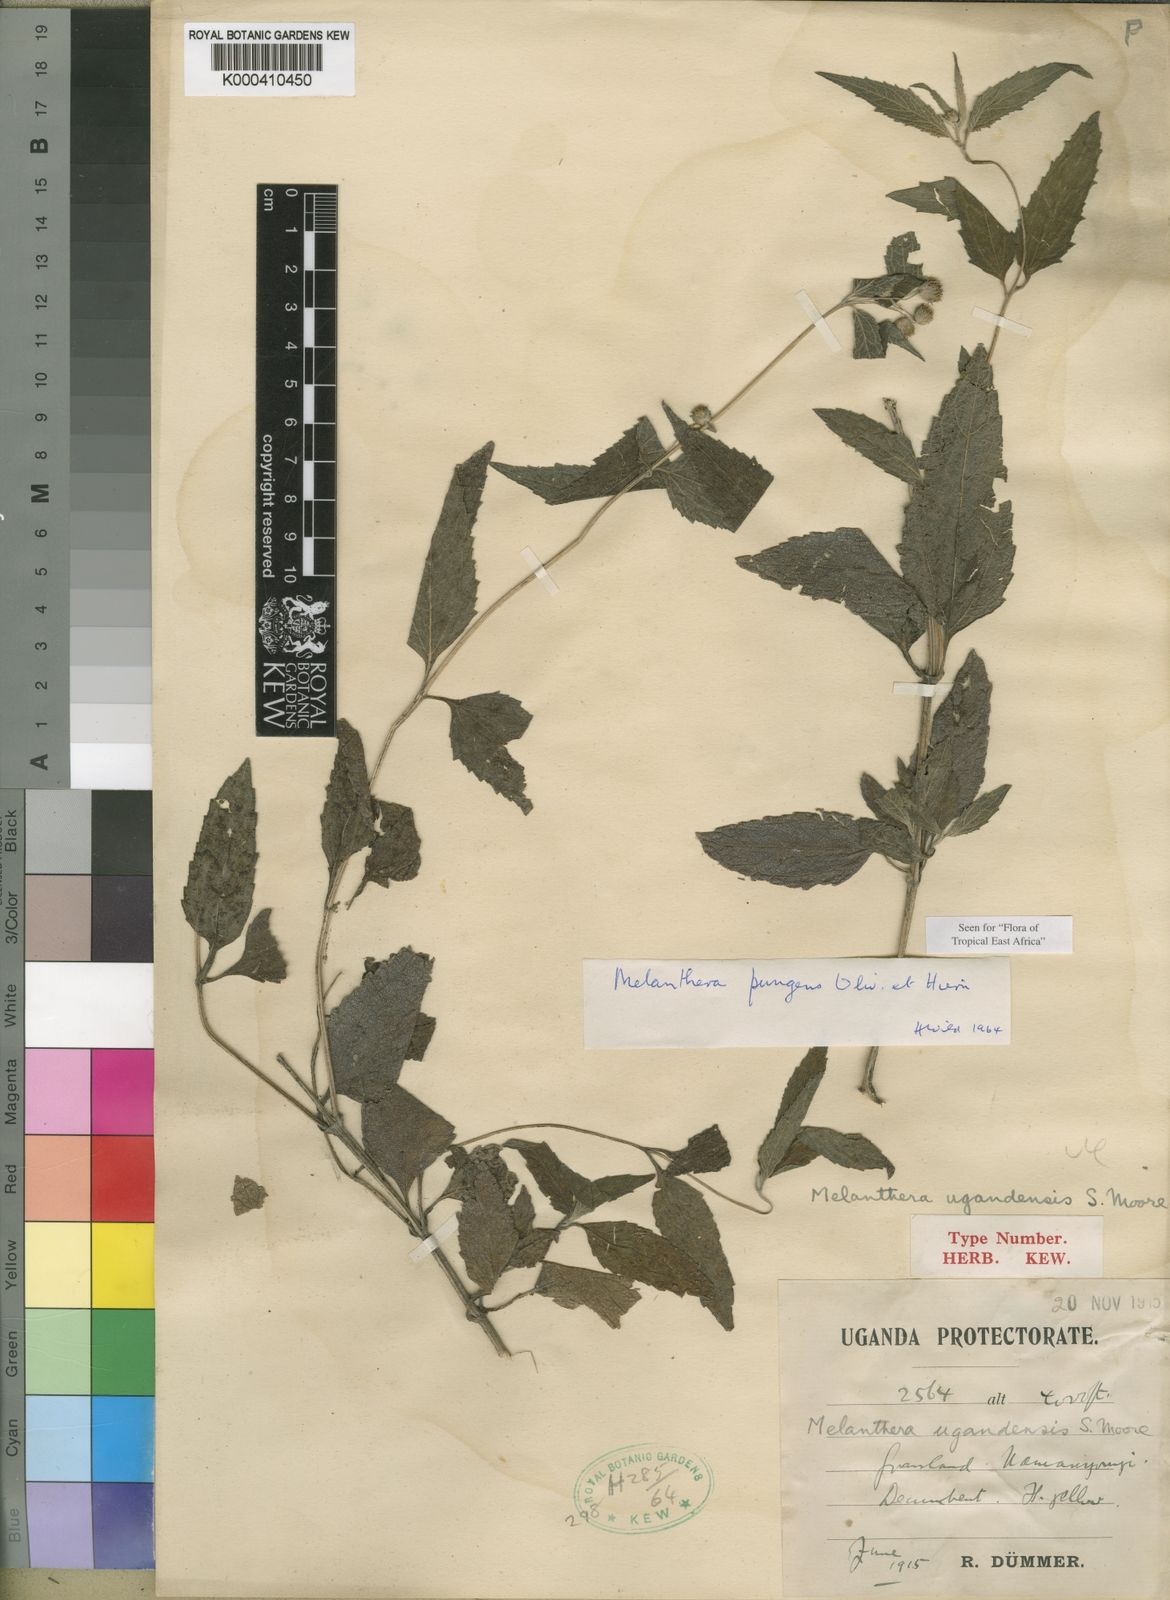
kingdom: Plantae
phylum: Tracheophyta
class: Magnoliopsida
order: Asterales
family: Asteraceae
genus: Lipotriche
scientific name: Lipotriche pungens
